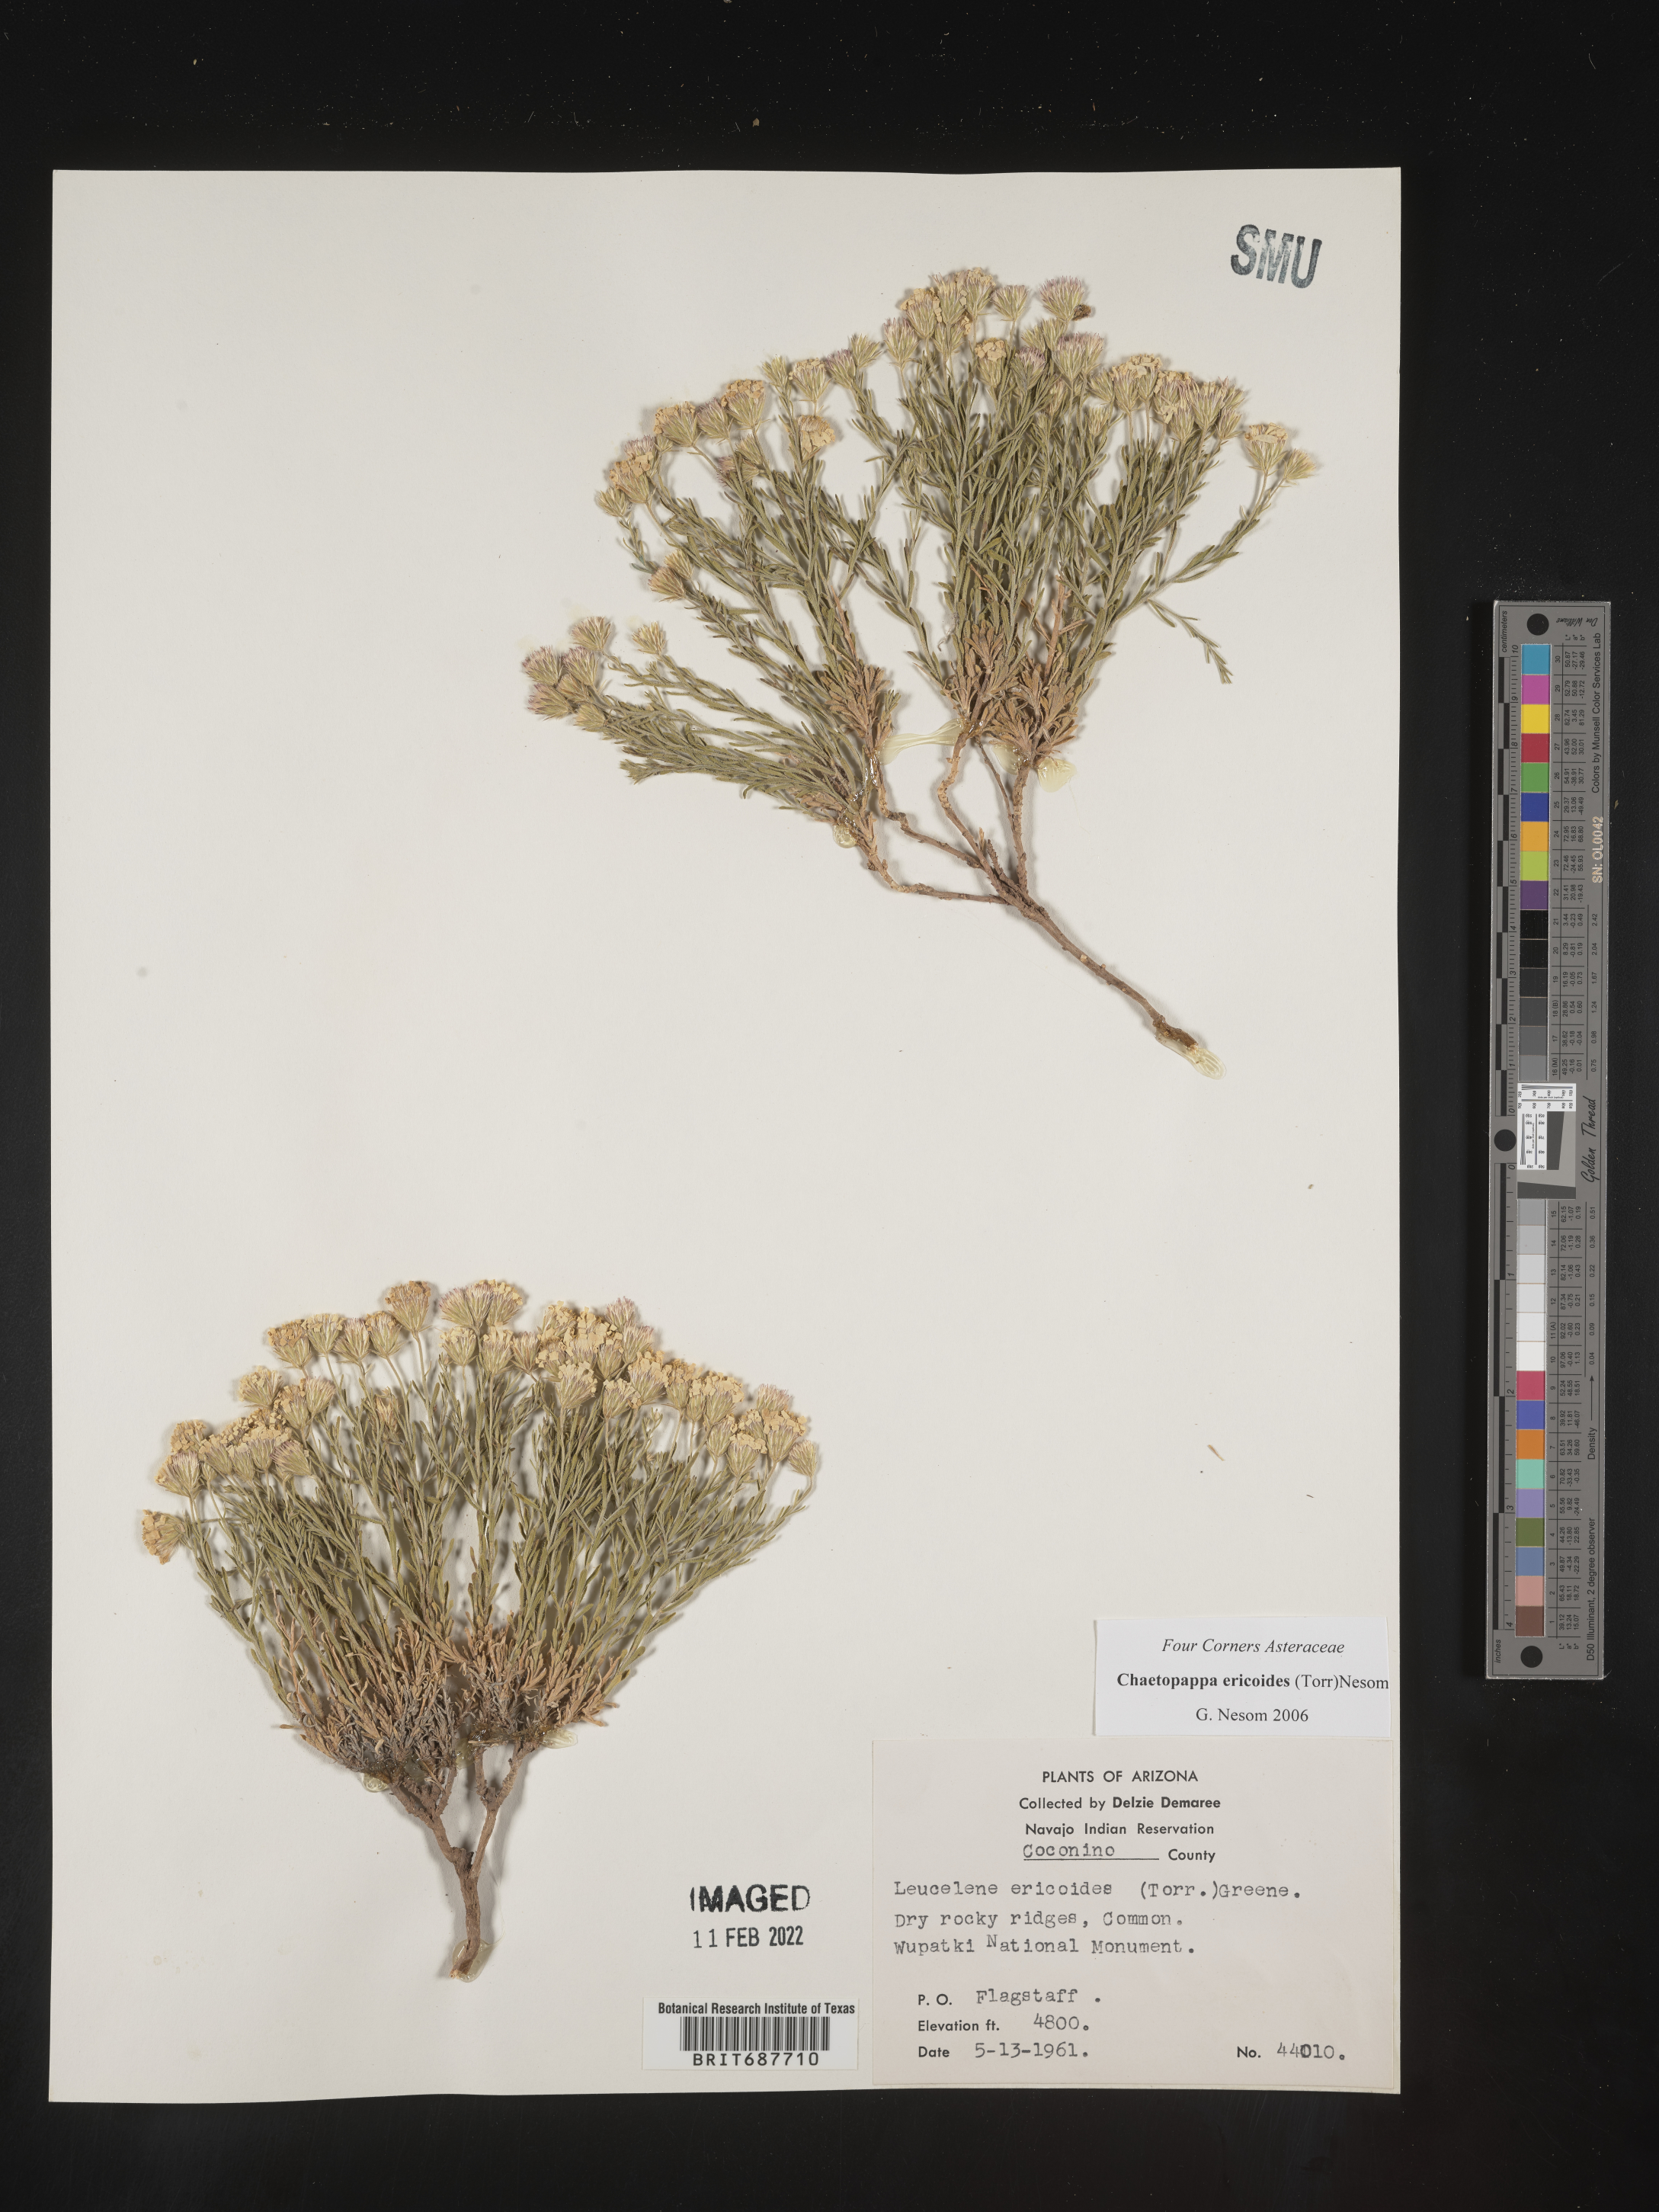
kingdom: Plantae
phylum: Tracheophyta
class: Magnoliopsida
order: Asterales
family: Asteraceae
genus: Chaetopappa
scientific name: Chaetopappa ericoides
